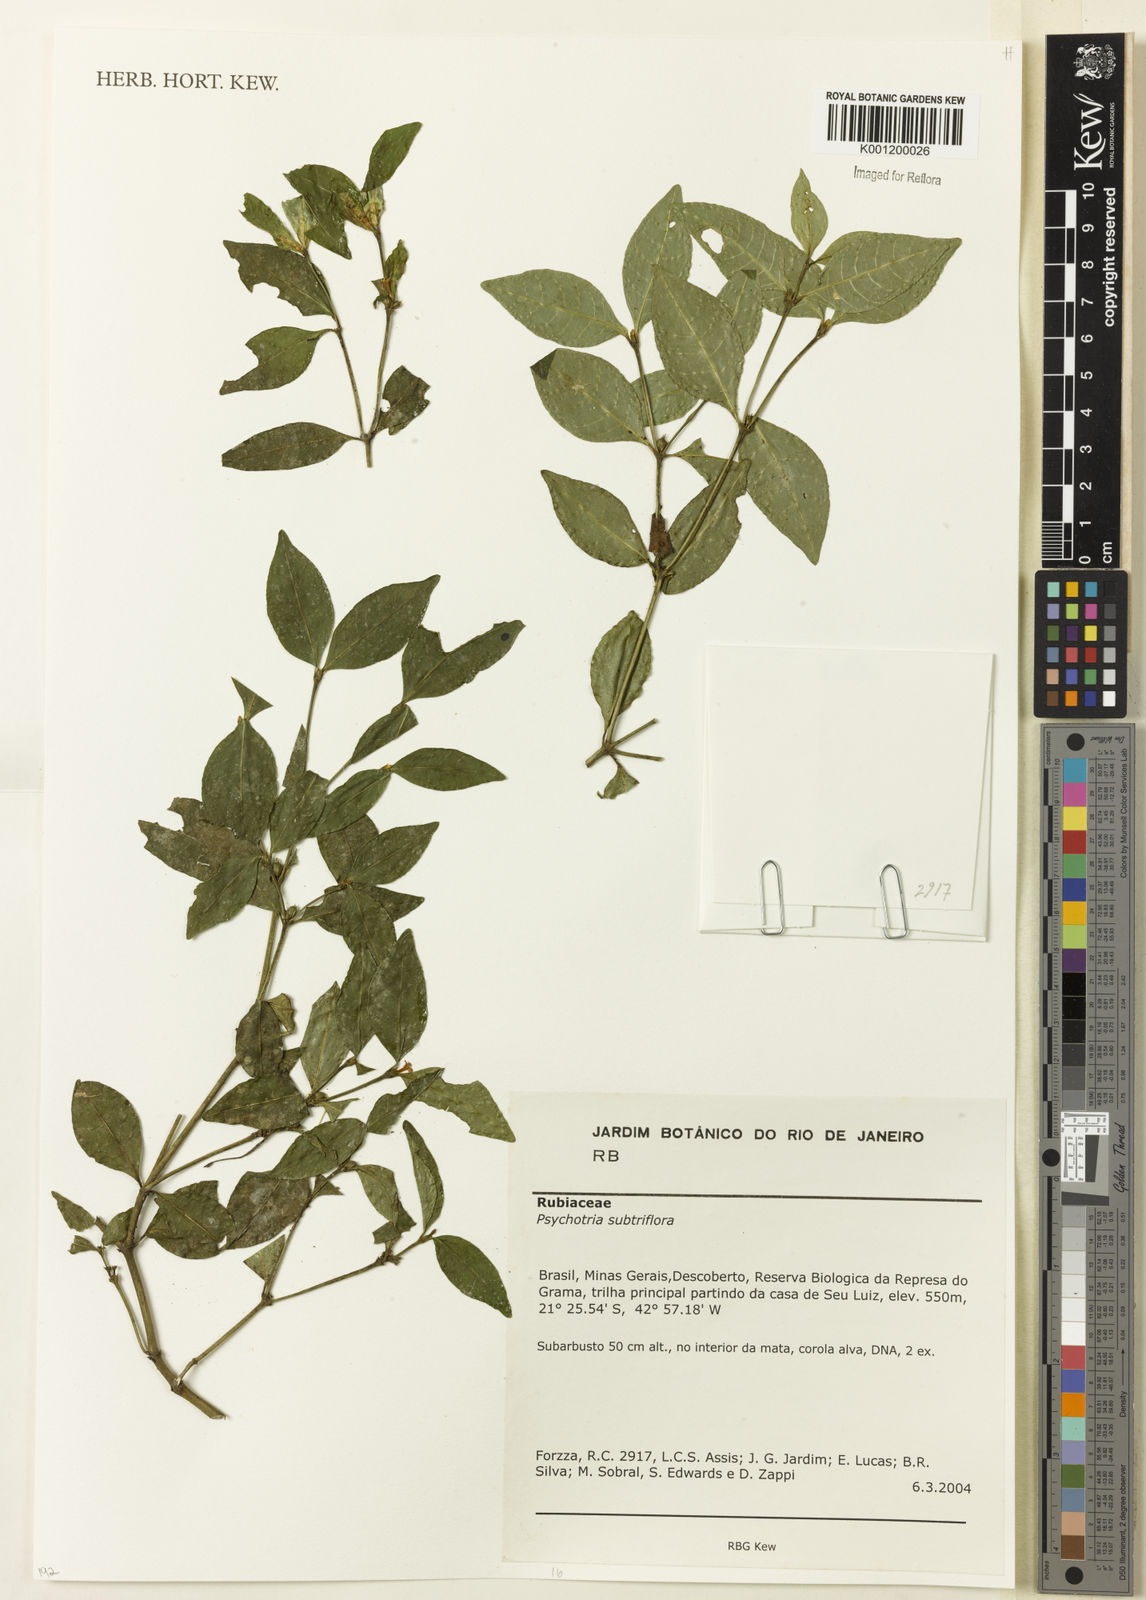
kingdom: Plantae
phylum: Tracheophyta
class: Magnoliopsida
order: Gentianales
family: Rubiaceae
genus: Psychotria
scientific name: Psychotria
